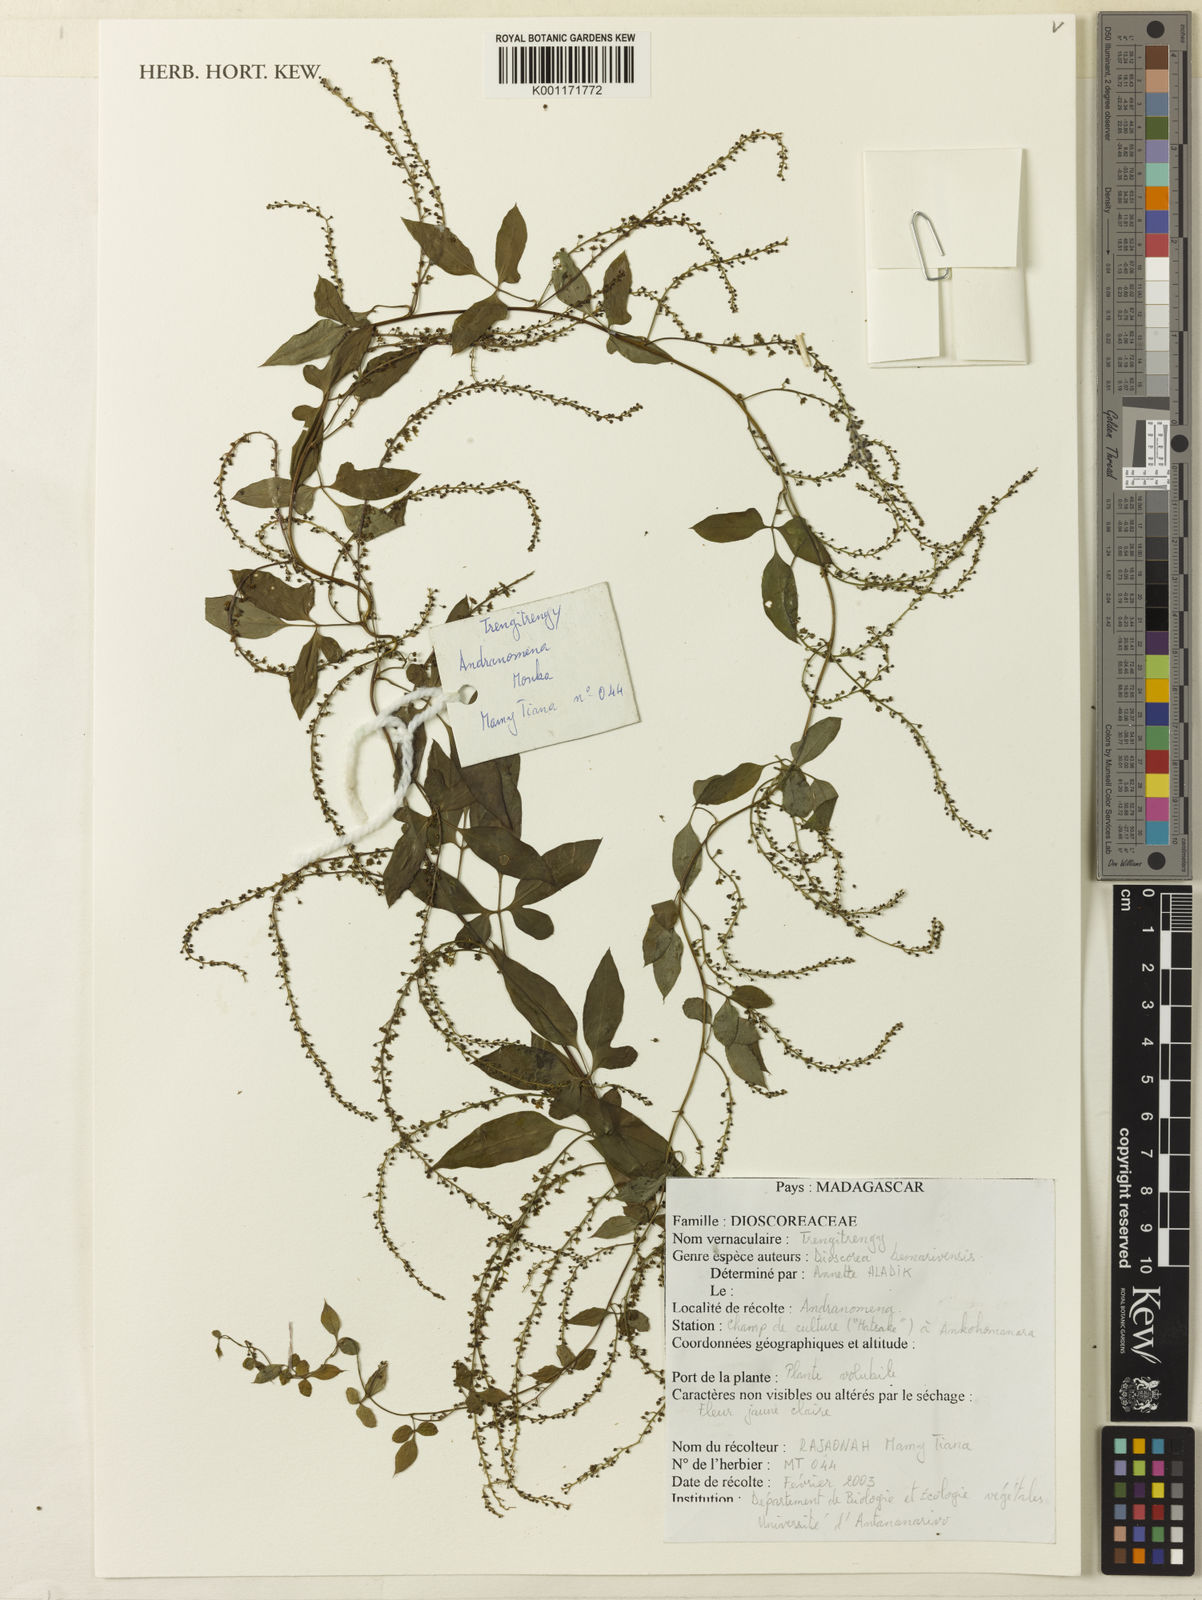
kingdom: Plantae
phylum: Tracheophyta
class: Liliopsida
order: Dioscoreales
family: Dioscoreaceae
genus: Dioscorea
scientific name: Dioscorea bemarivensis
